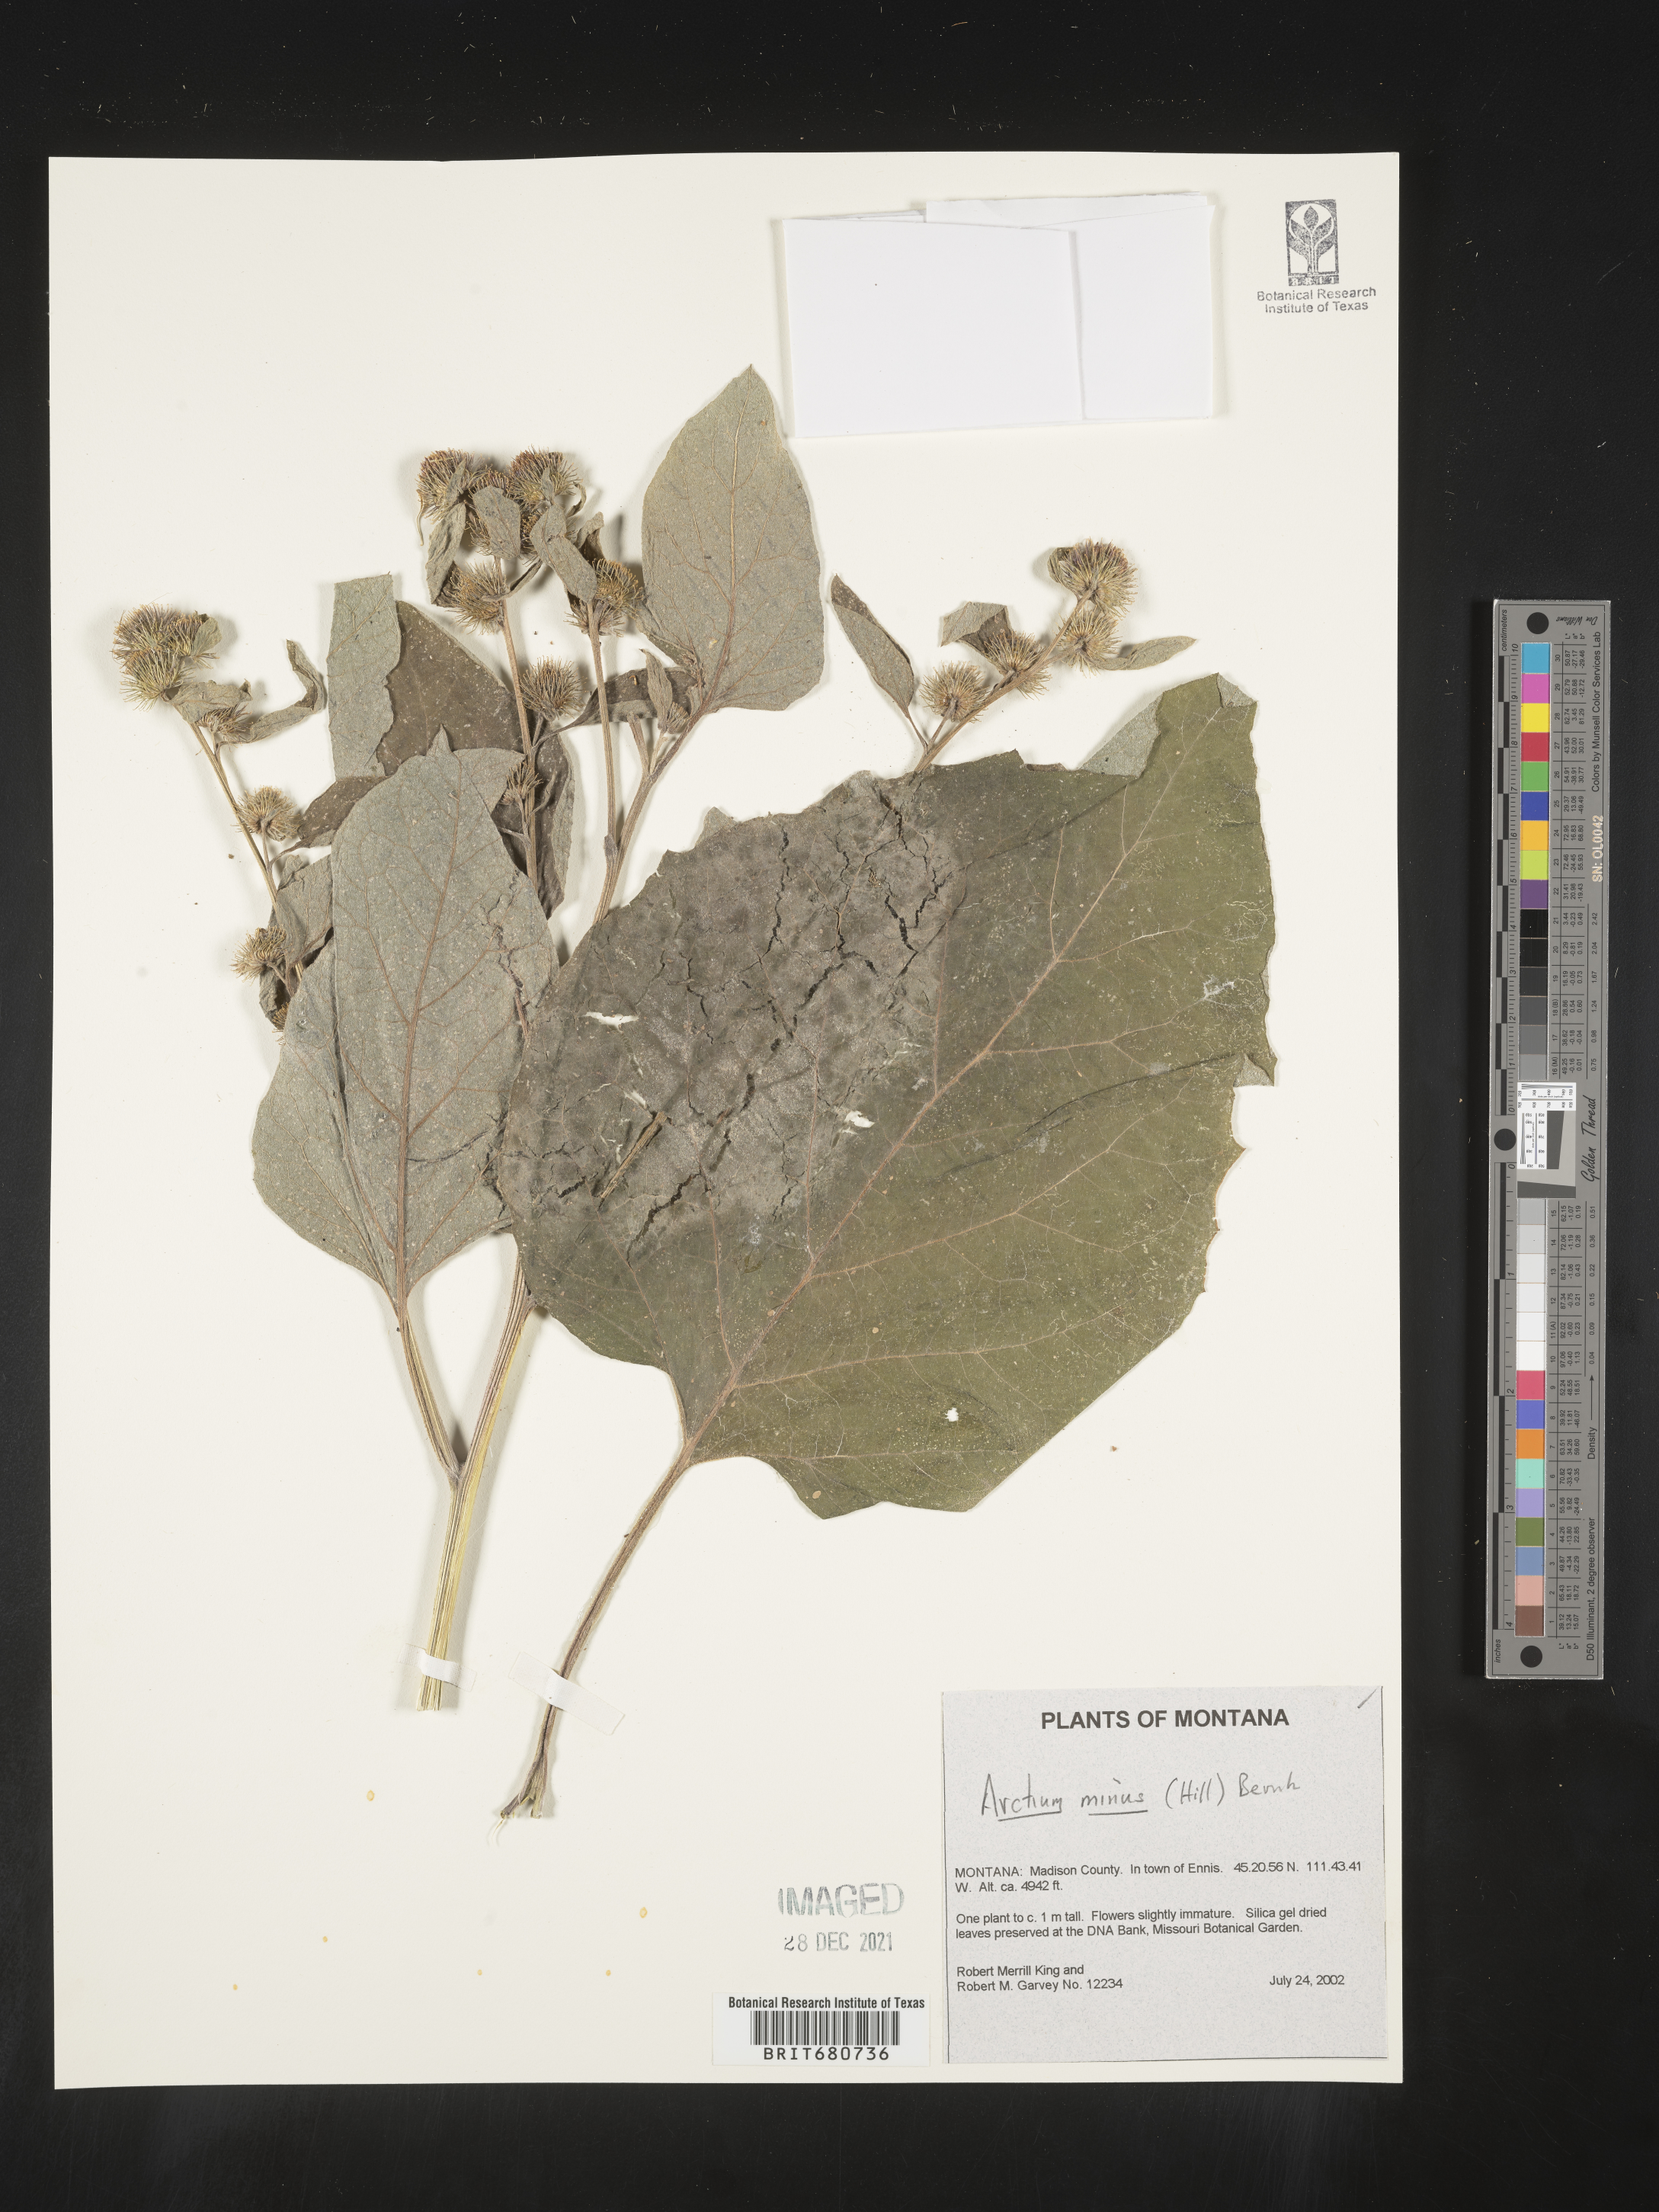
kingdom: Plantae
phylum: Tracheophyta
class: Magnoliopsida
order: Asterales
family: Asteraceae
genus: Arctium
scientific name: Arctium minus
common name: Lesser burdock
